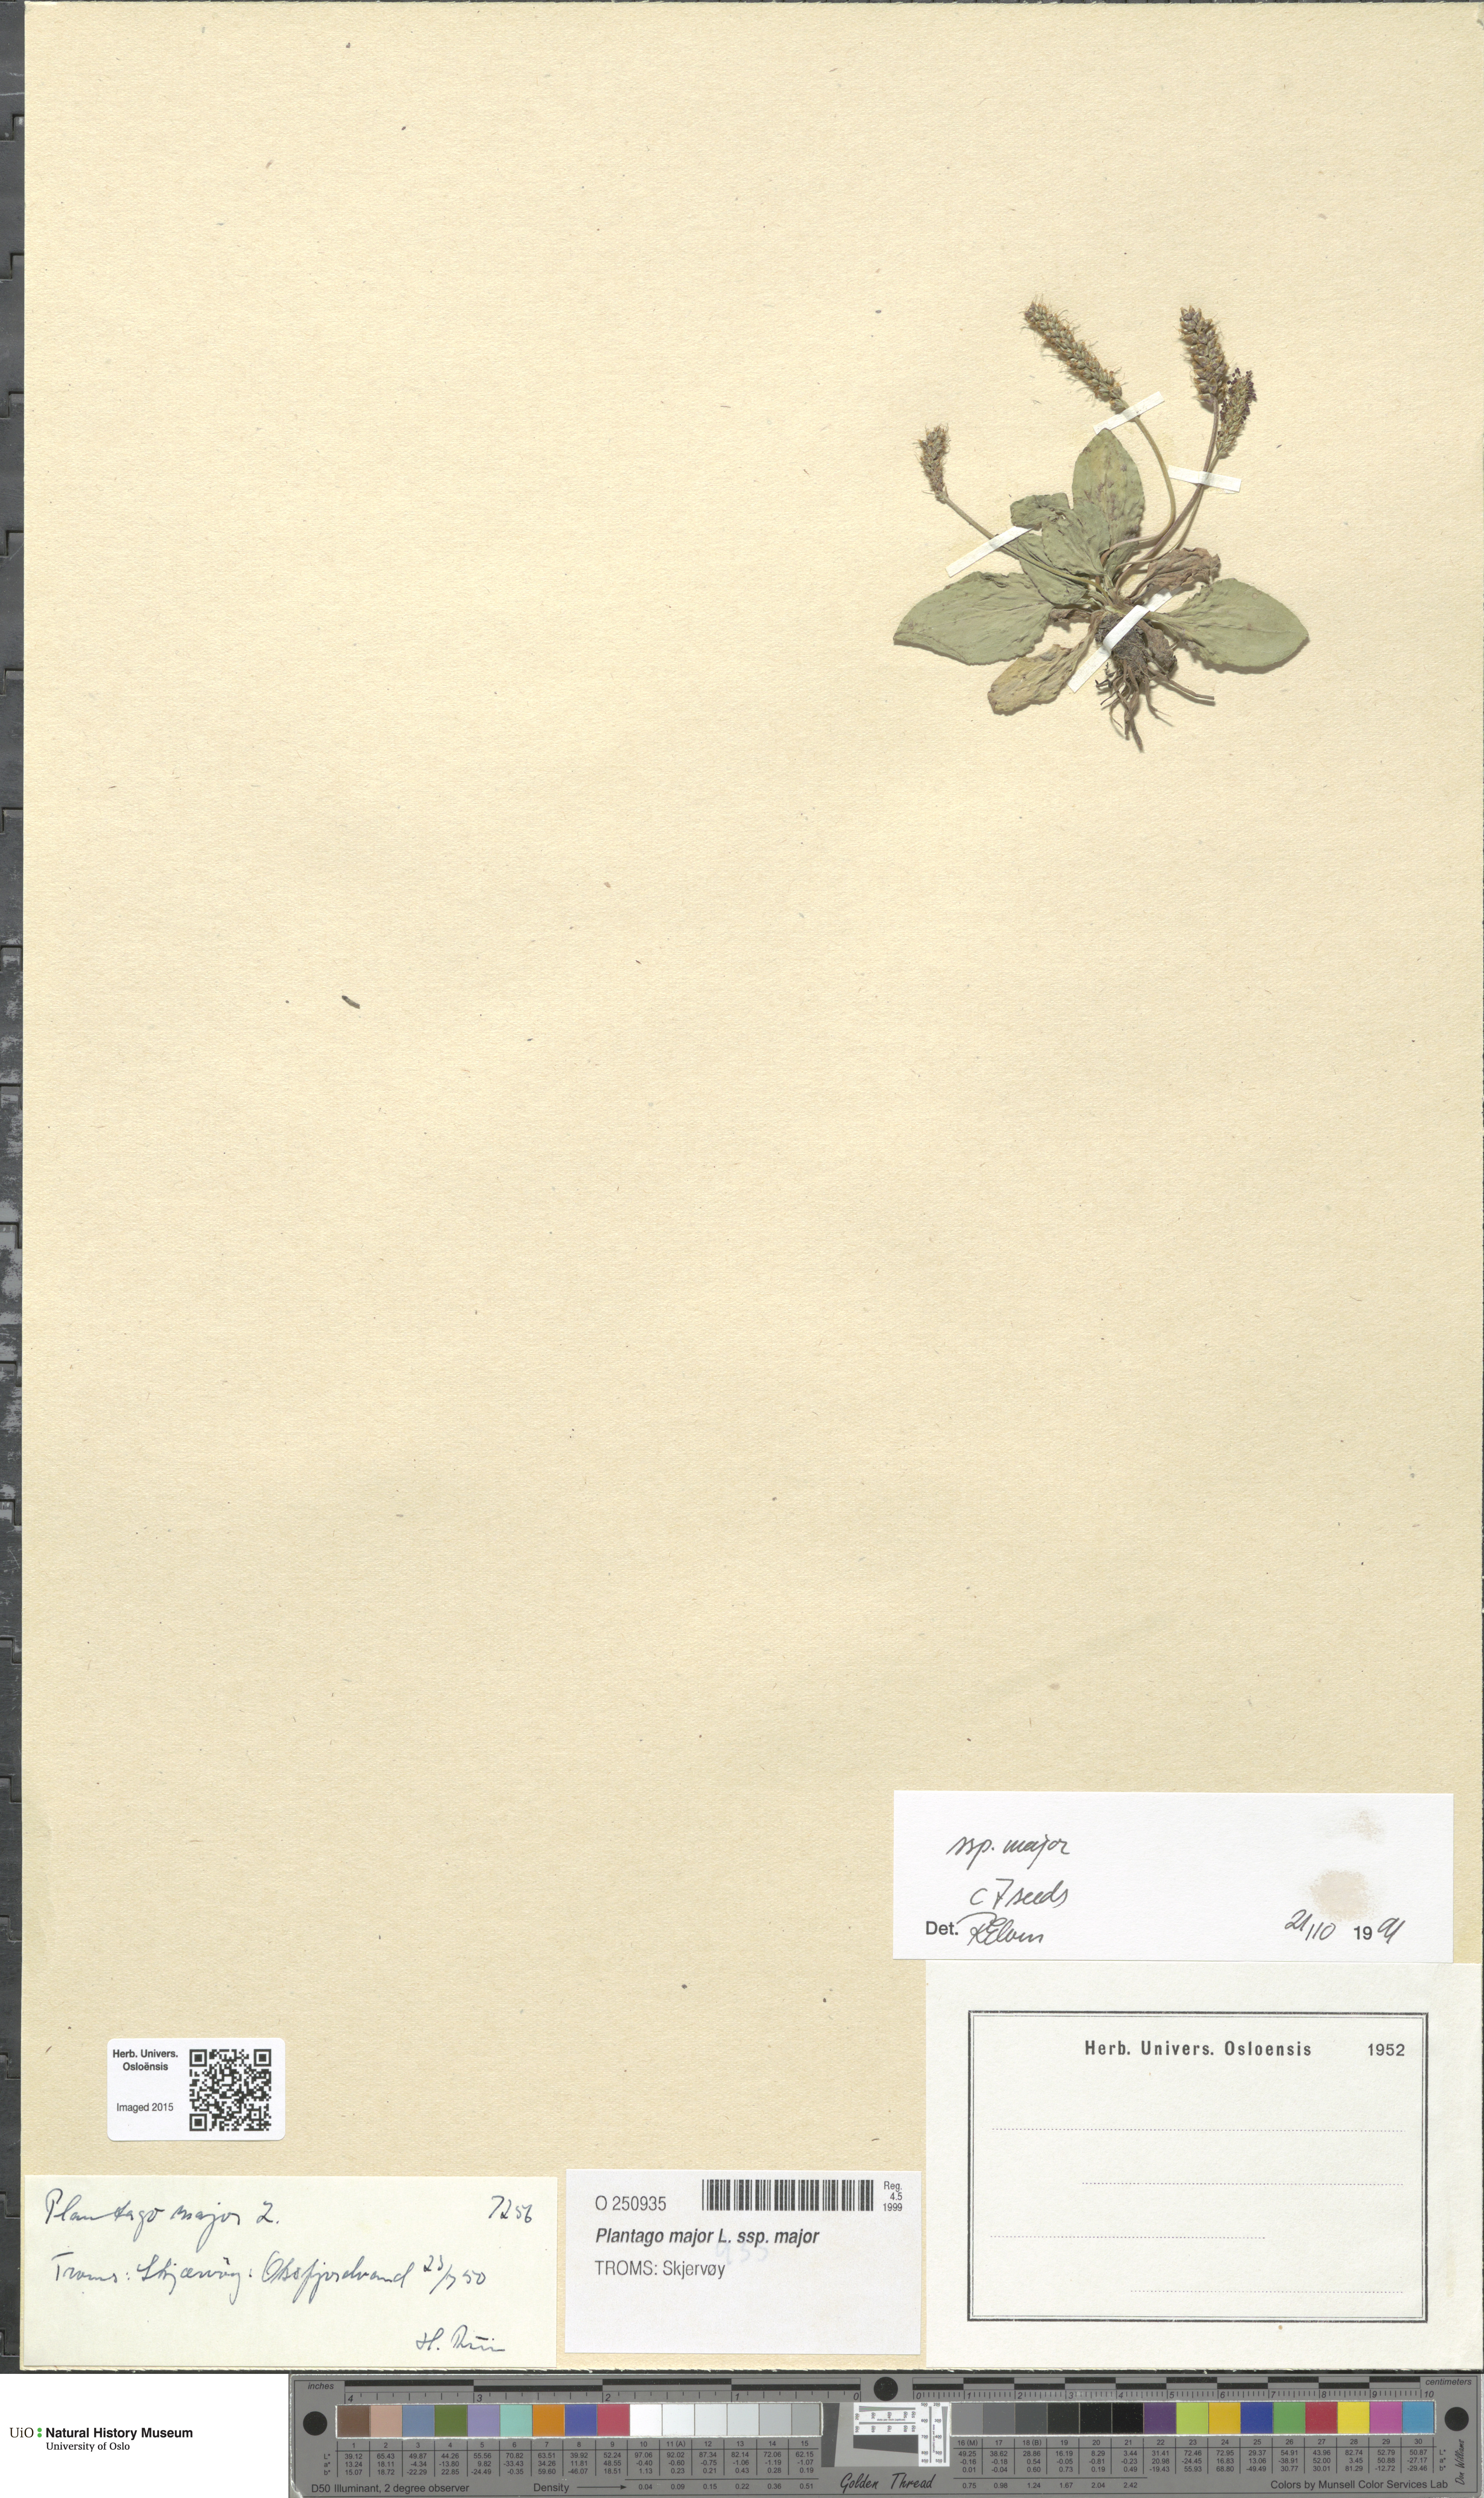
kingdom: Plantae
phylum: Tracheophyta
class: Magnoliopsida
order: Lamiales
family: Plantaginaceae
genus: Plantago
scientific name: Plantago major
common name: Common plantain
